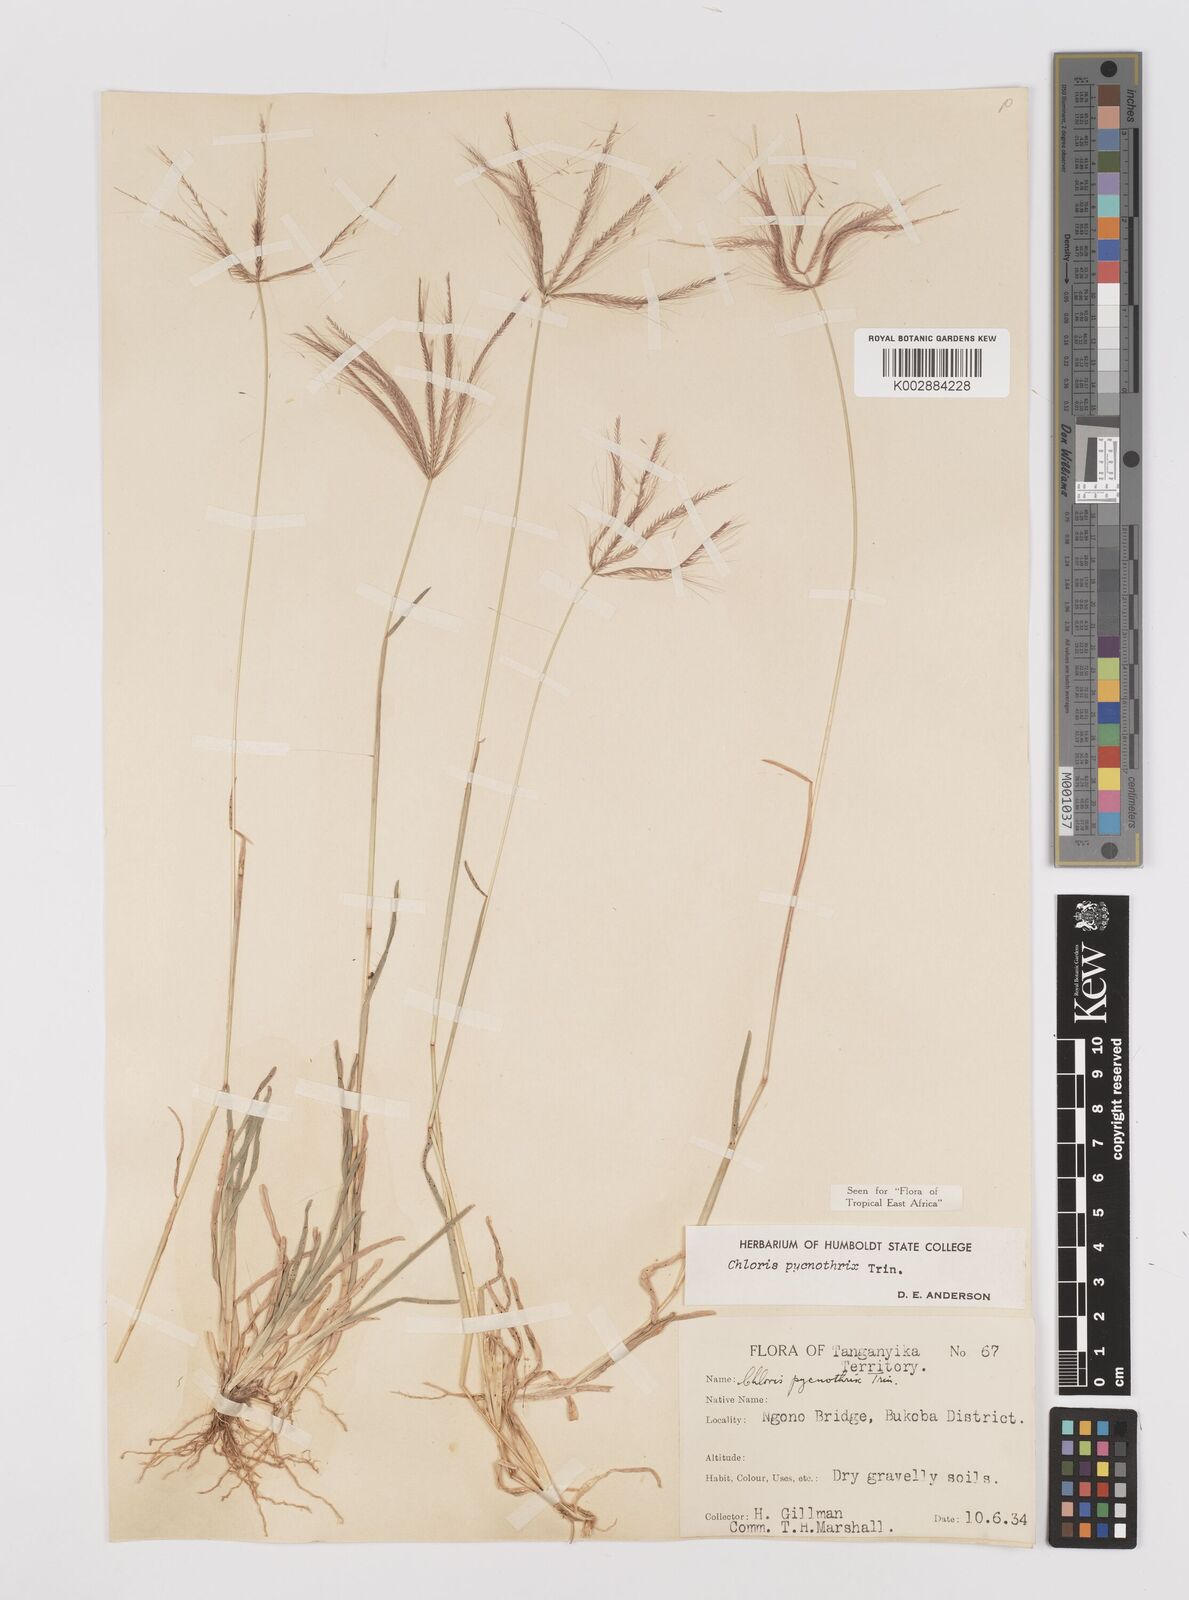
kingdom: Plantae
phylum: Tracheophyta
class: Liliopsida
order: Poales
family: Poaceae
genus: Chloris
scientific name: Chloris pycnothrix
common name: Spiderweb chloris
